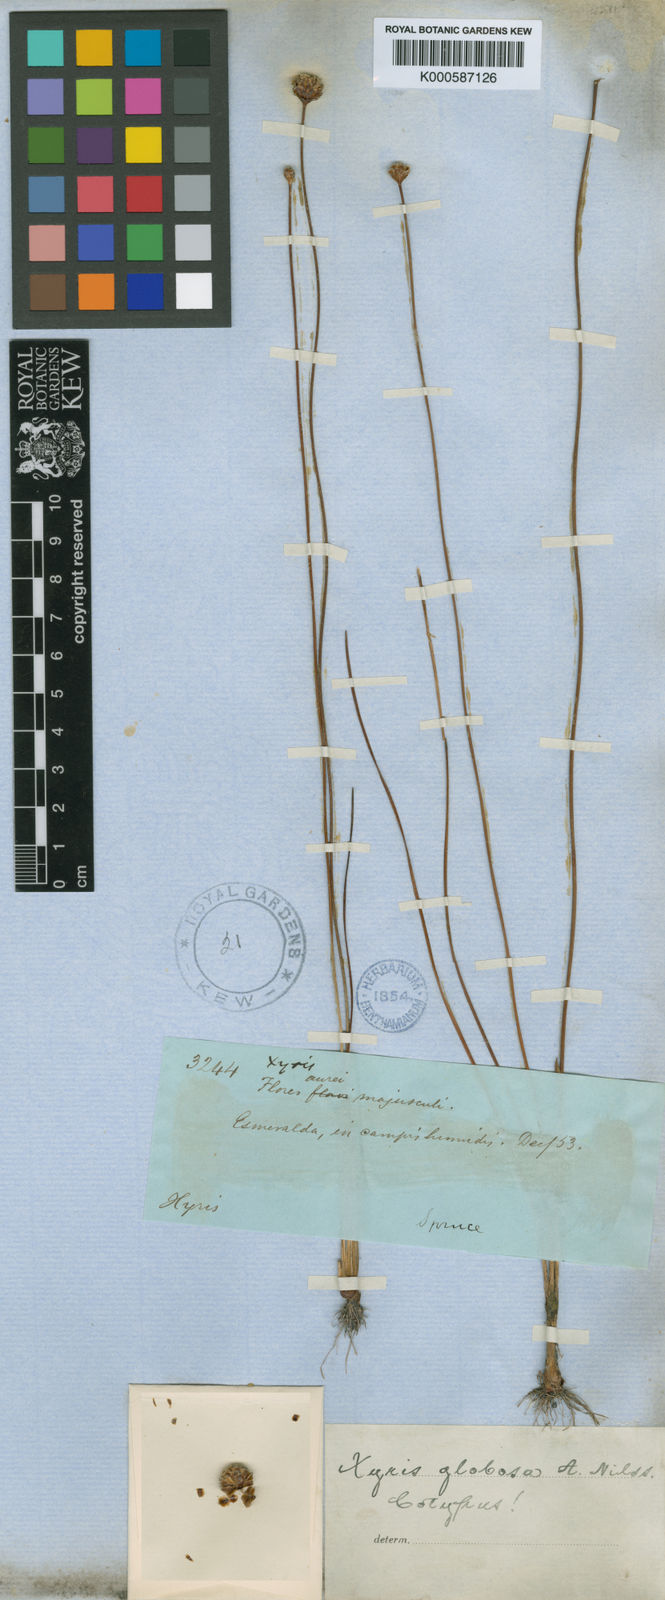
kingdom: Plantae
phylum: Tracheophyta
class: Liliopsida
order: Poales
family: Xyridaceae
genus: Xyris
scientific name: Xyris globosa
